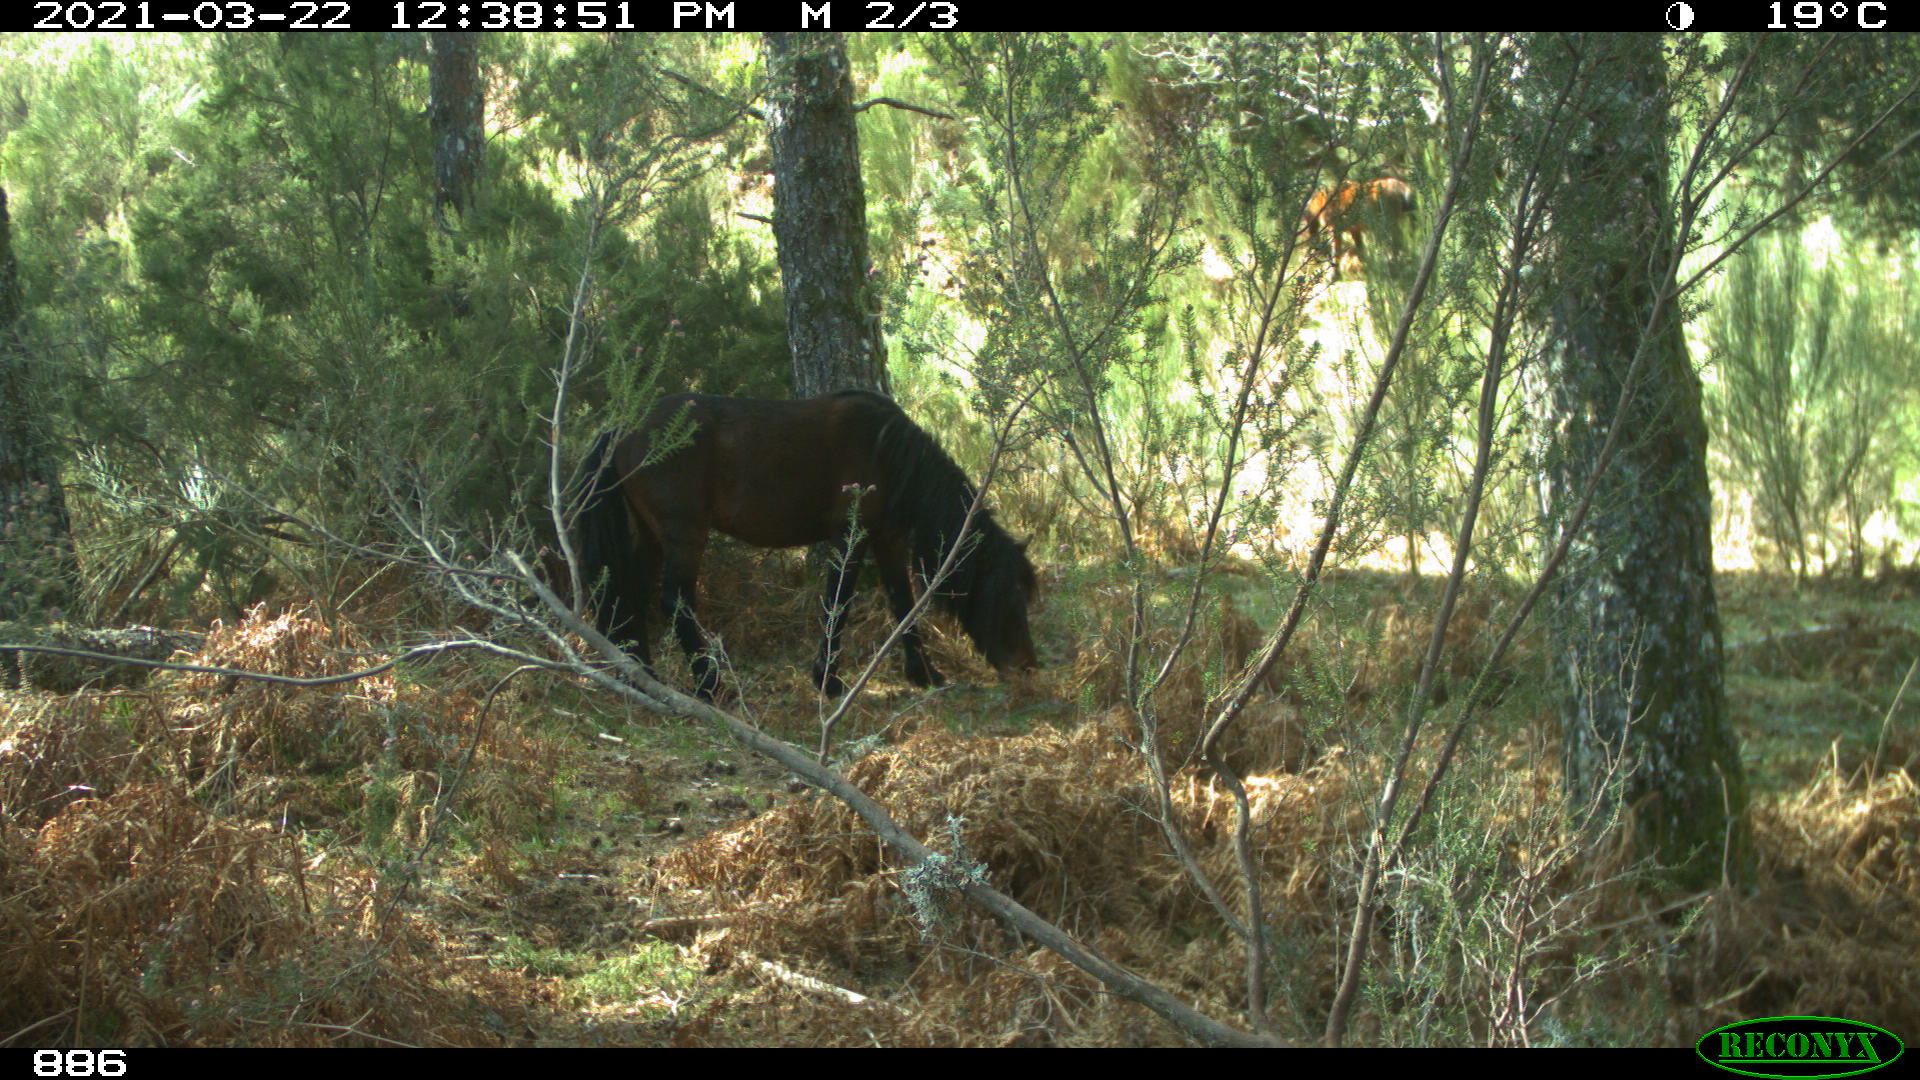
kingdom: Animalia
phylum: Chordata
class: Mammalia
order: Perissodactyla
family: Equidae
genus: Equus
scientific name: Equus caballus
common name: Horse
